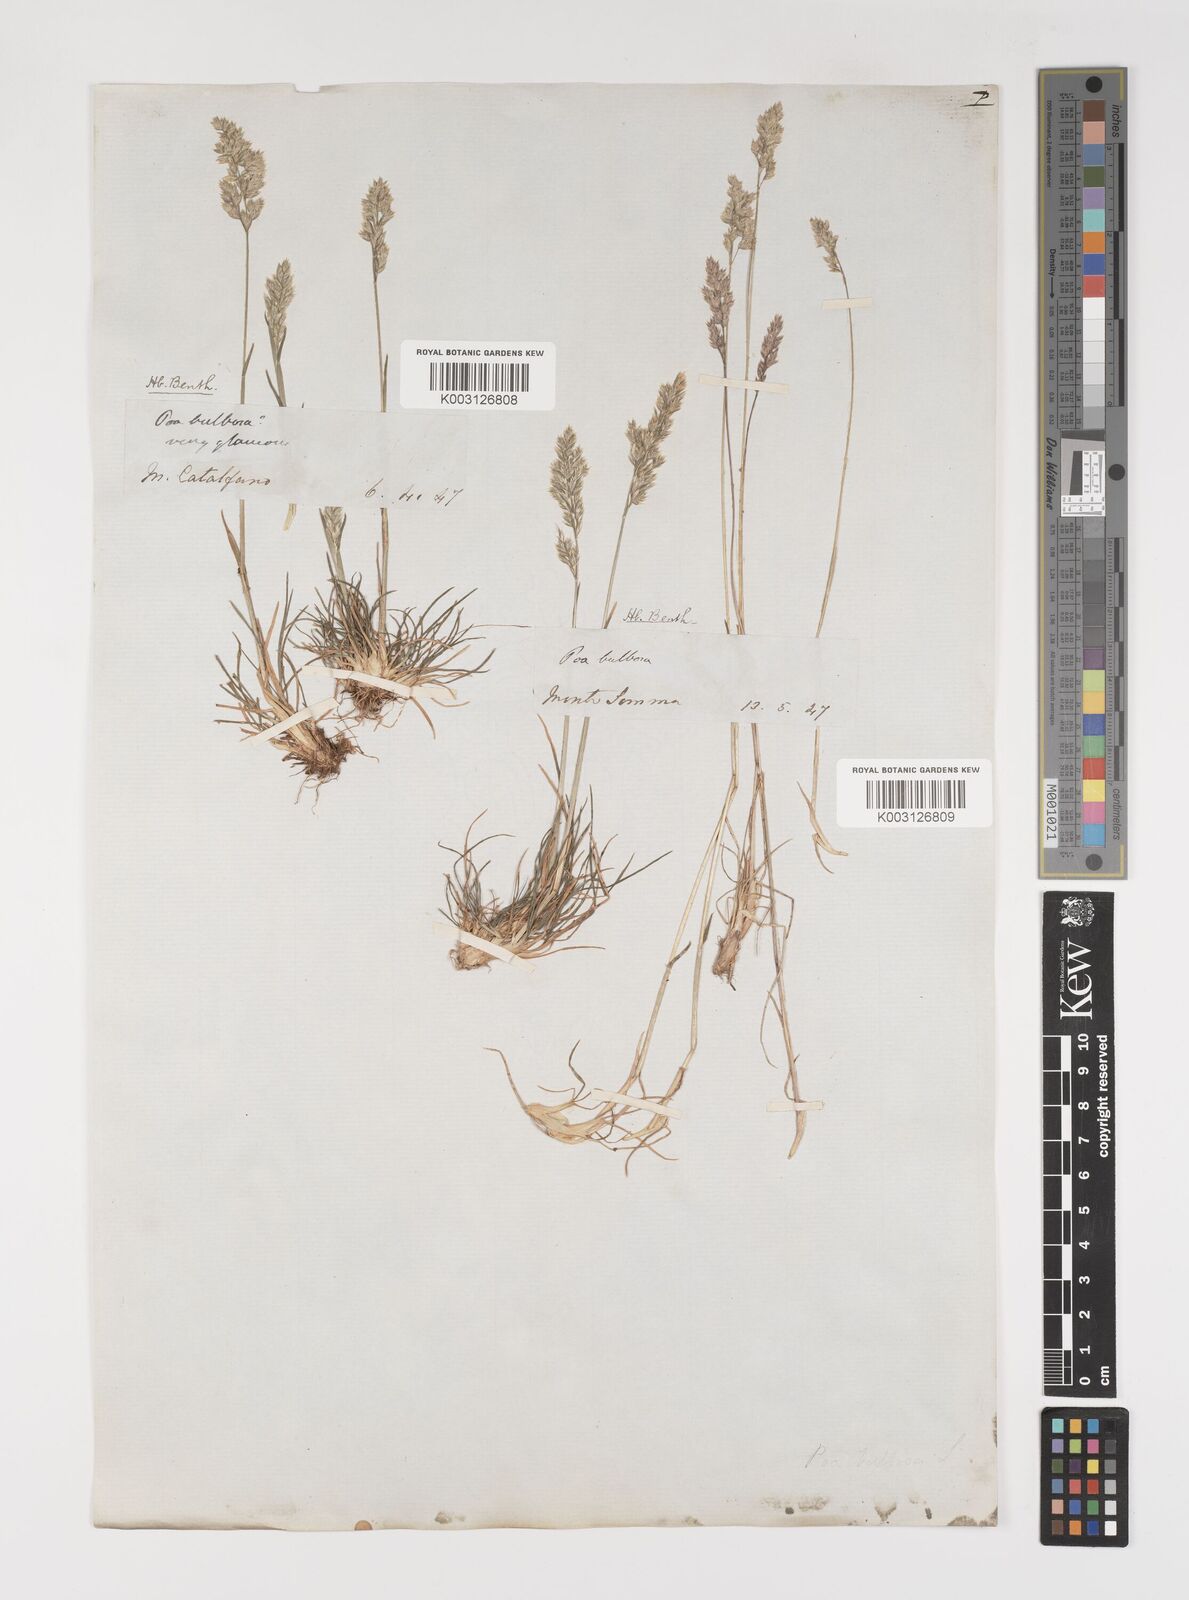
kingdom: Plantae
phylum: Tracheophyta
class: Liliopsida
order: Poales
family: Poaceae
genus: Poa
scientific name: Poa bulbosa
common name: Bulbous bluegrass
